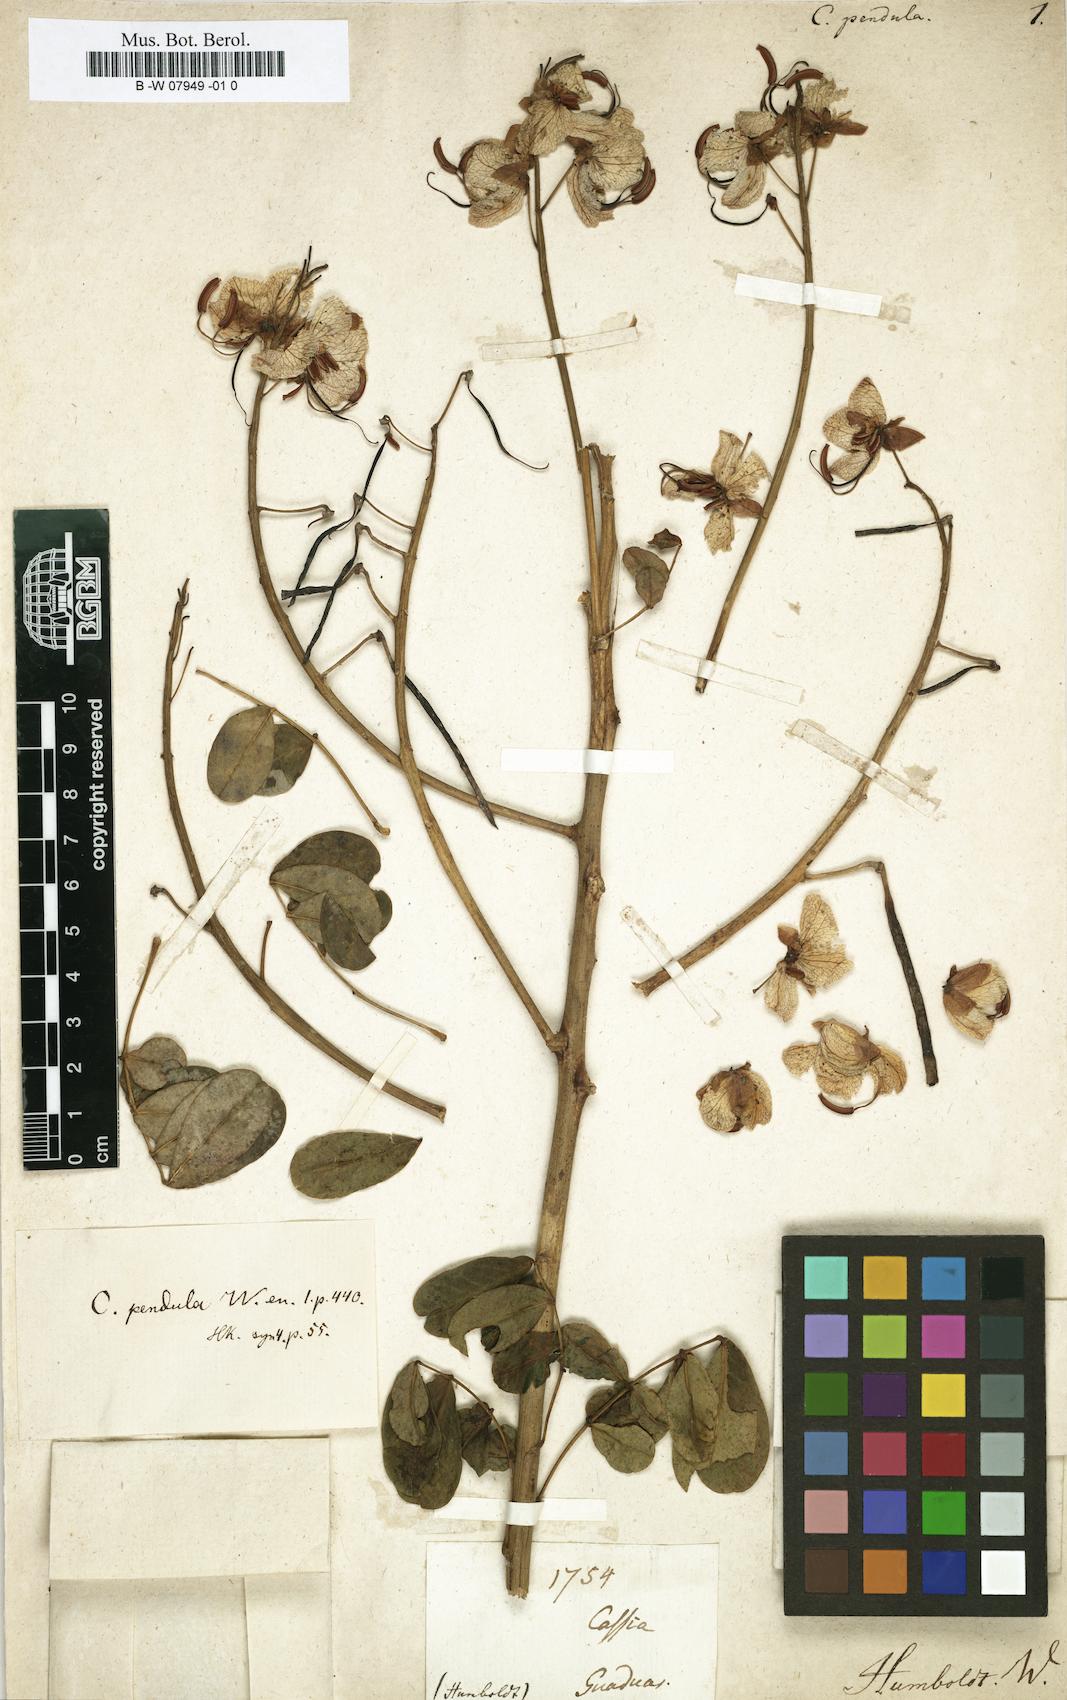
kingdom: Plantae
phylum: Tracheophyta
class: Magnoliopsida
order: Fabales
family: Fabaceae
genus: Senna
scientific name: Senna pendula
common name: Easter cassia
